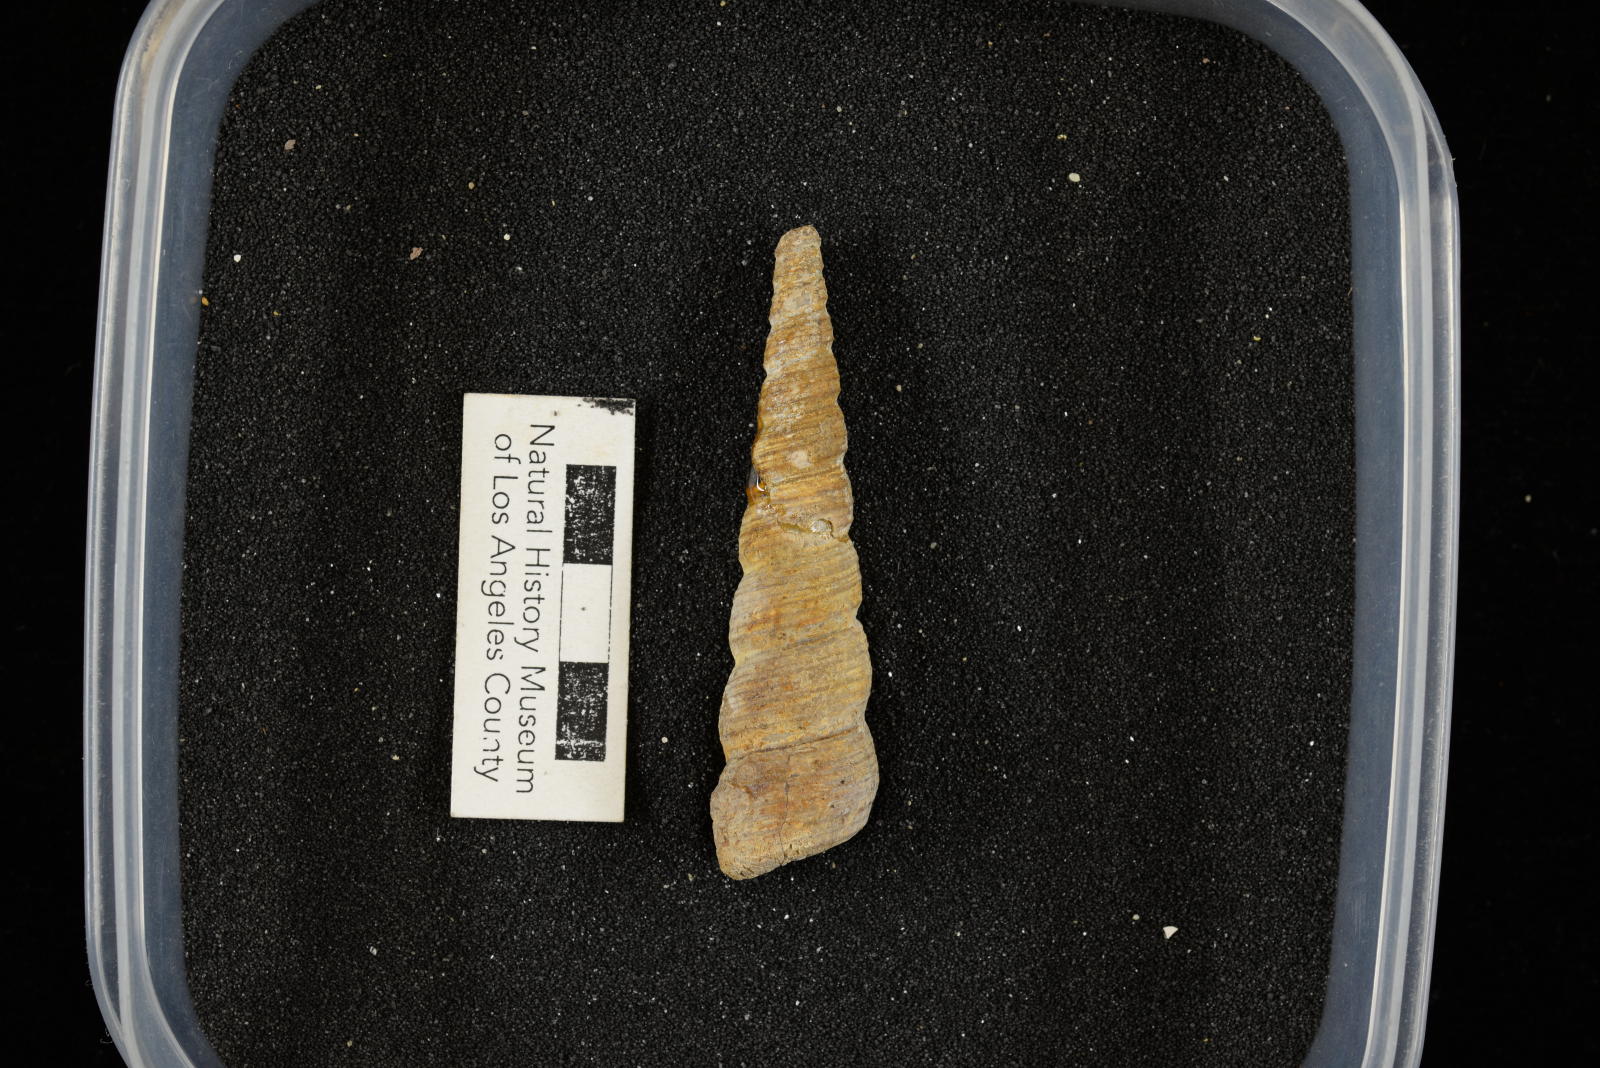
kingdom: Animalia
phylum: Mollusca
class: Gastropoda
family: Turritellidae
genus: Turritella
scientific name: Turritella
